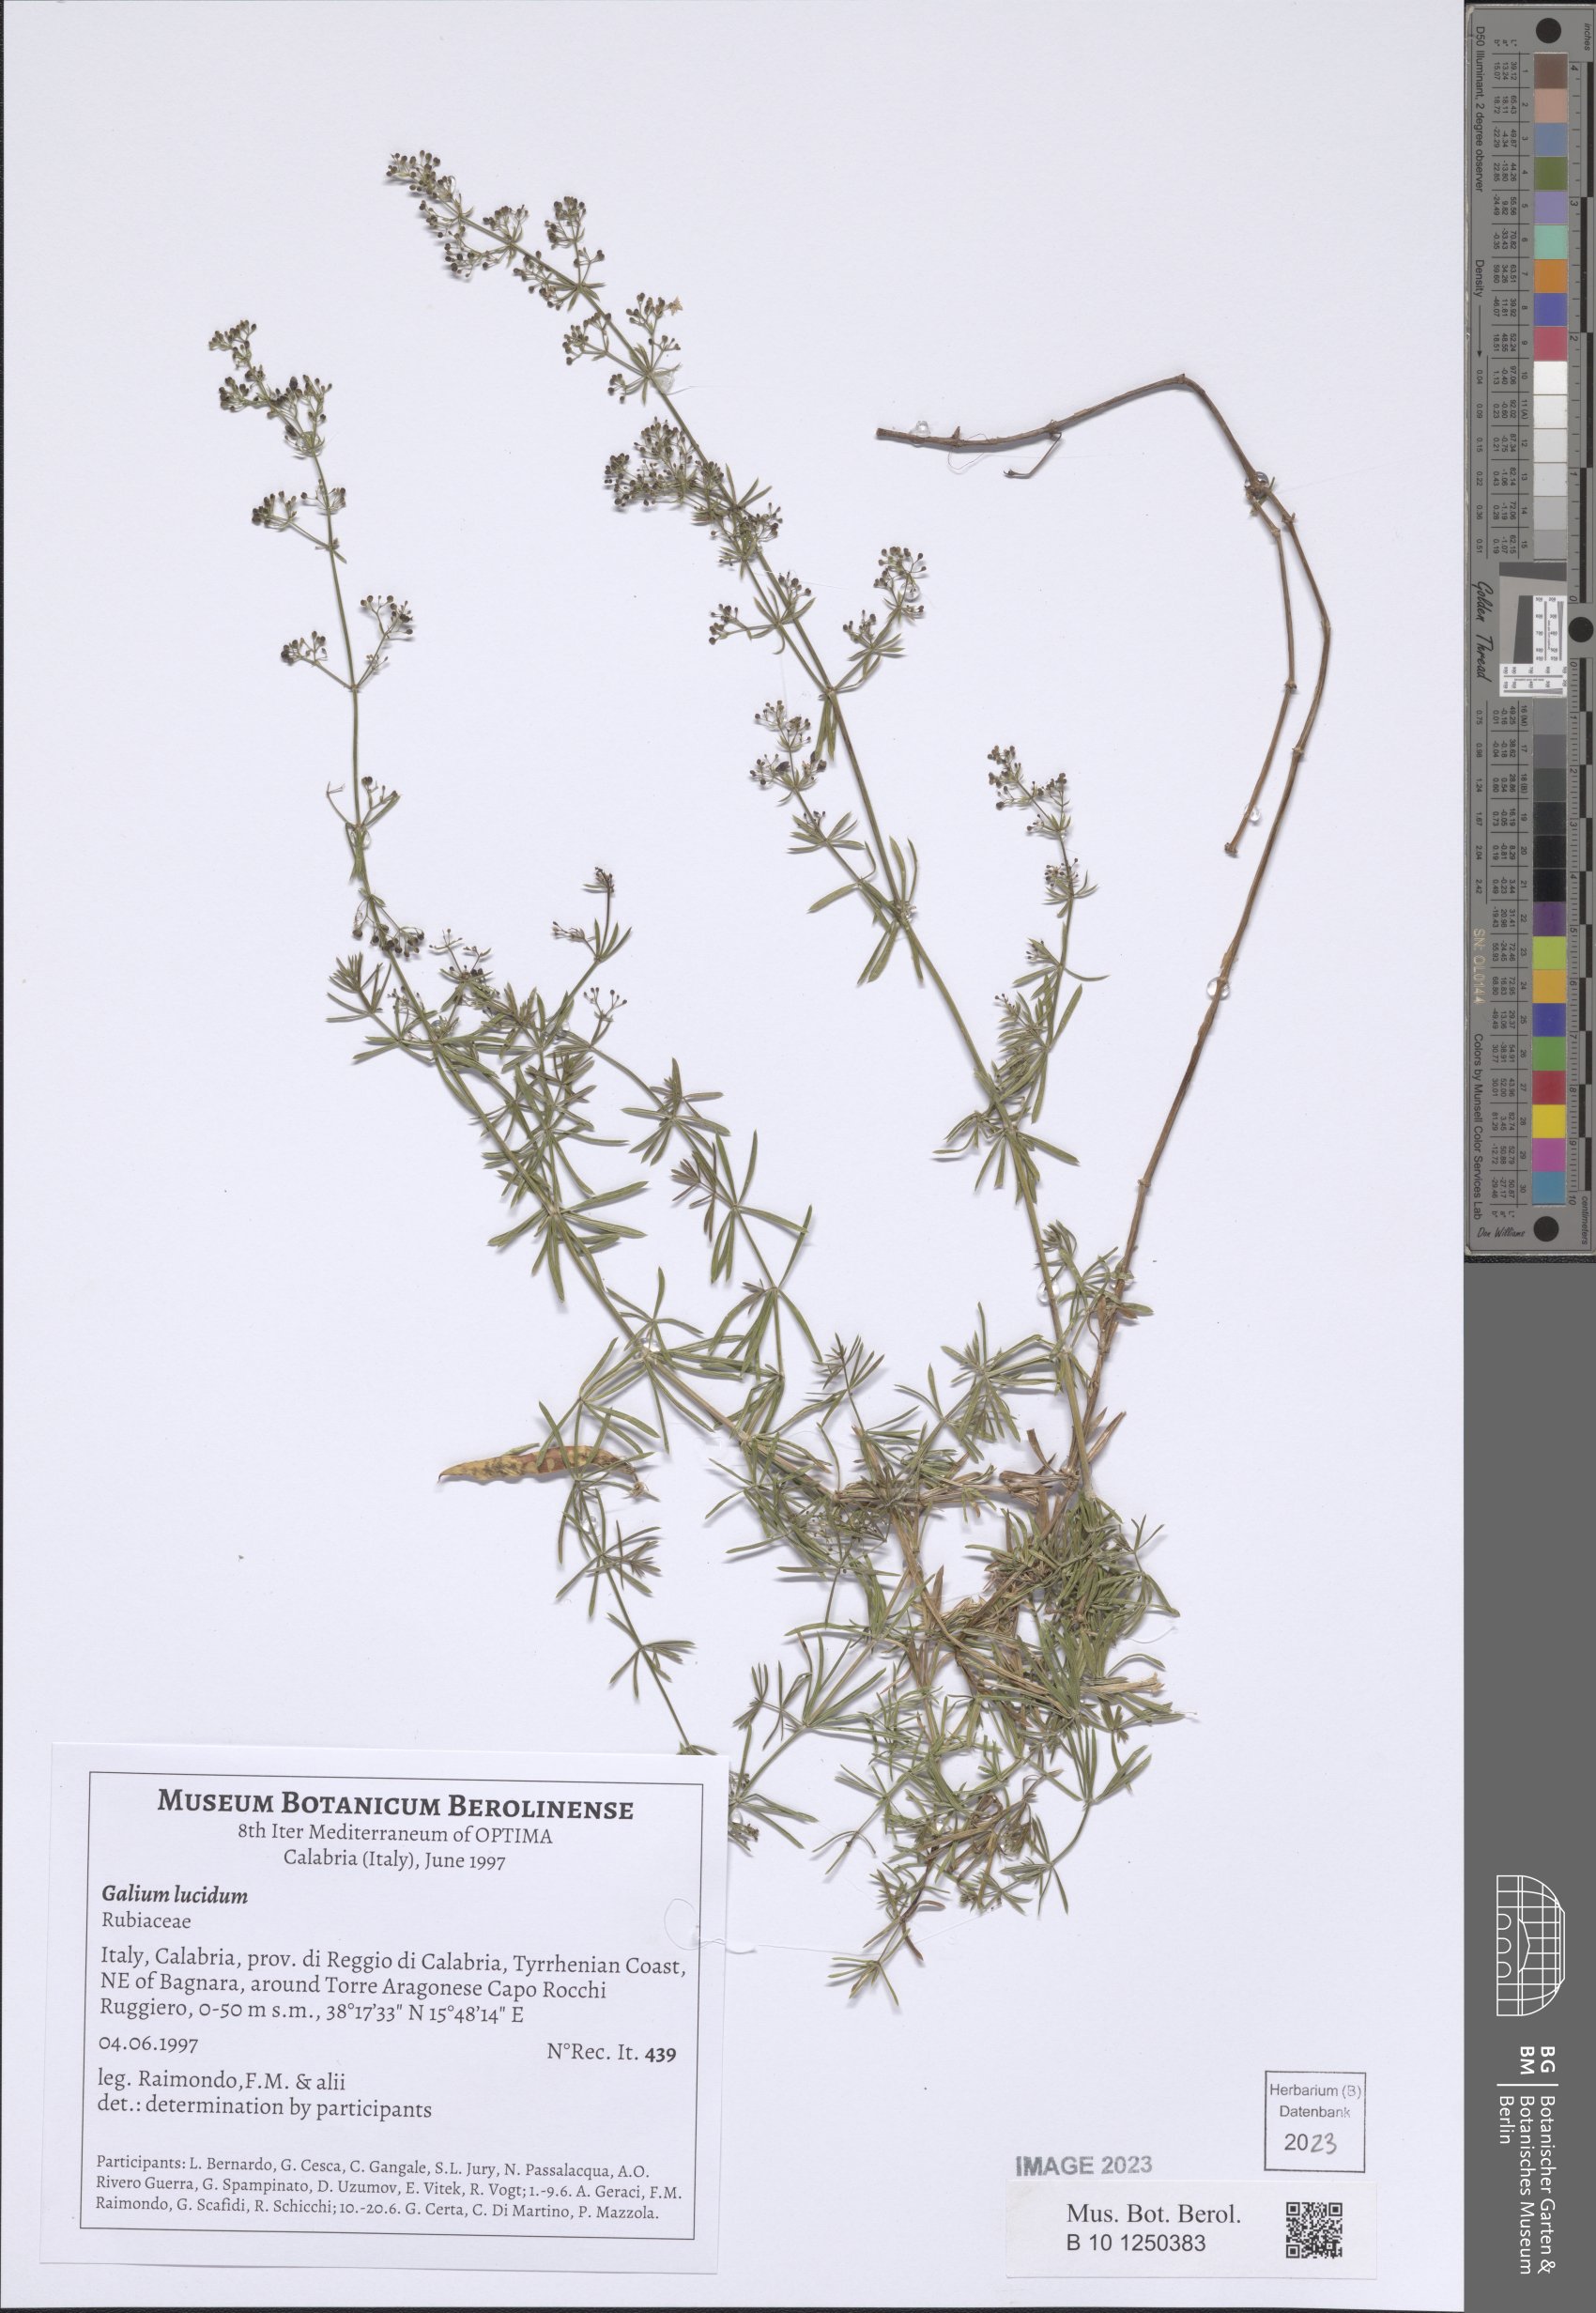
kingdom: Plantae
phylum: Tracheophyta
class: Magnoliopsida
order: Gentianales
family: Rubiaceae
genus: Galium
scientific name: Galium lucidum
